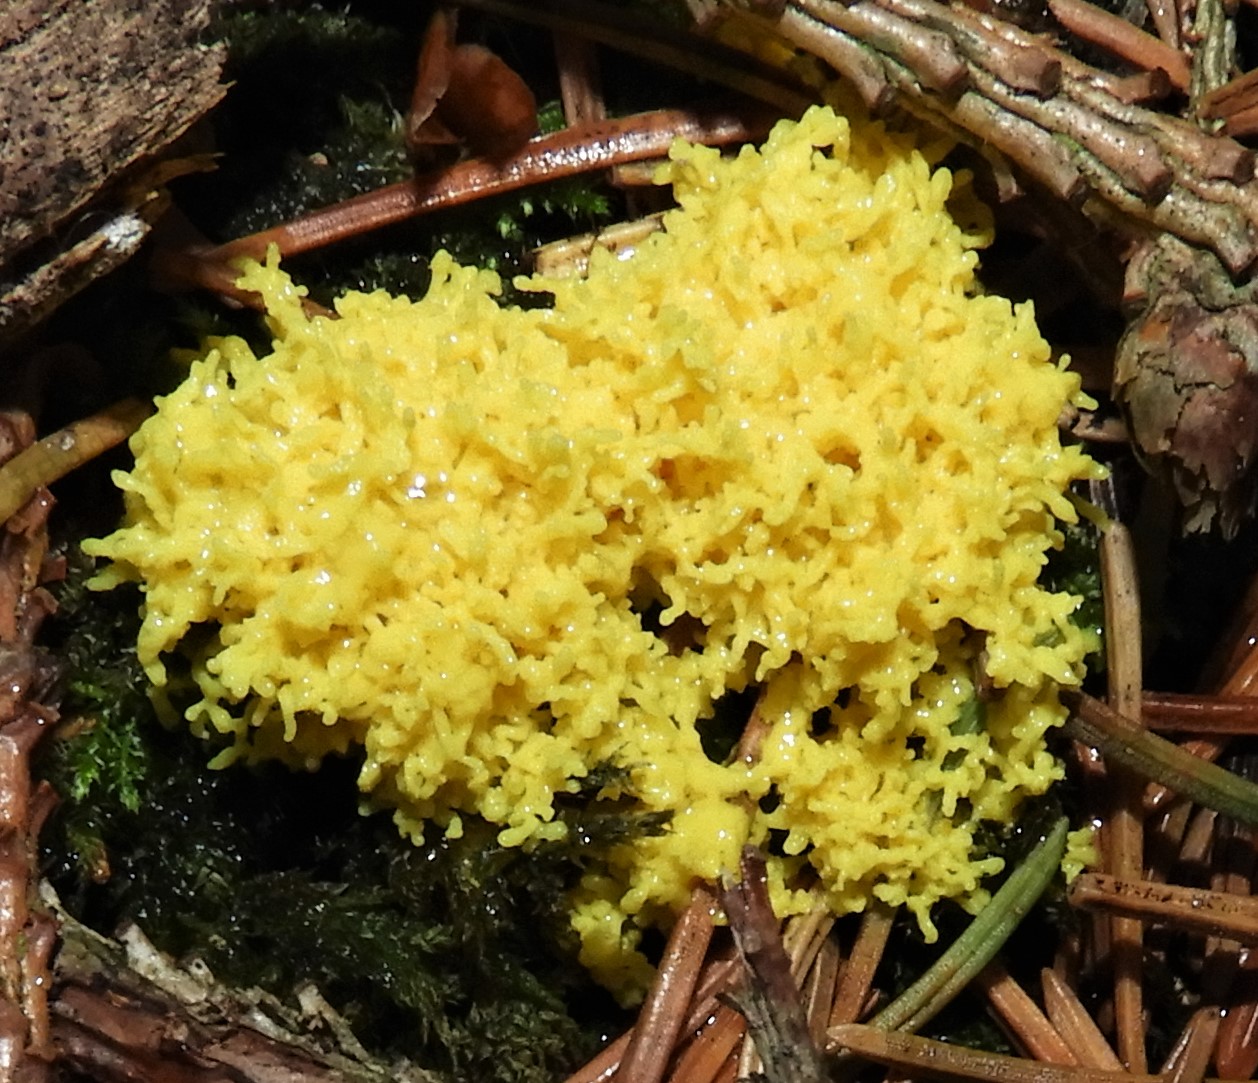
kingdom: Protozoa
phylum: Mycetozoa
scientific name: Mycetozoa
